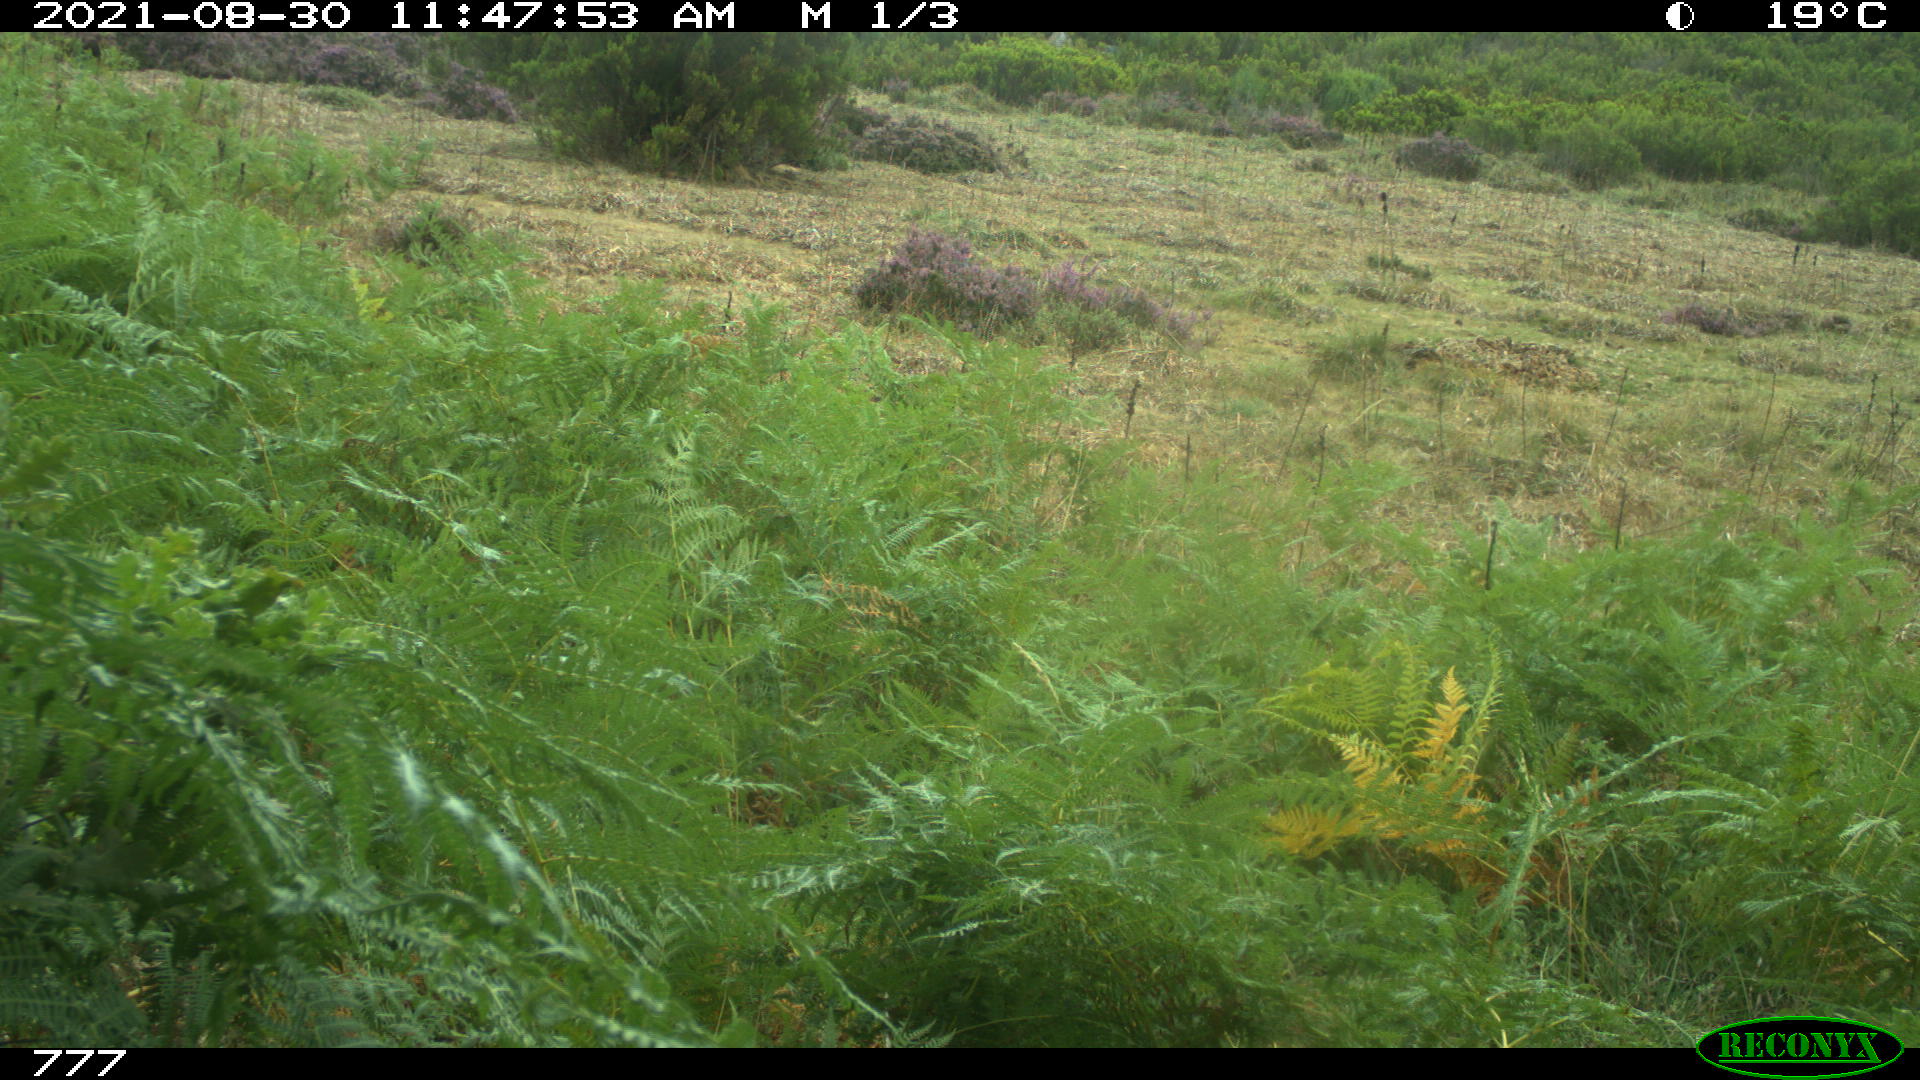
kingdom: Animalia
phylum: Chordata
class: Mammalia
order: Perissodactyla
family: Equidae
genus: Equus
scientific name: Equus caballus
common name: Horse
